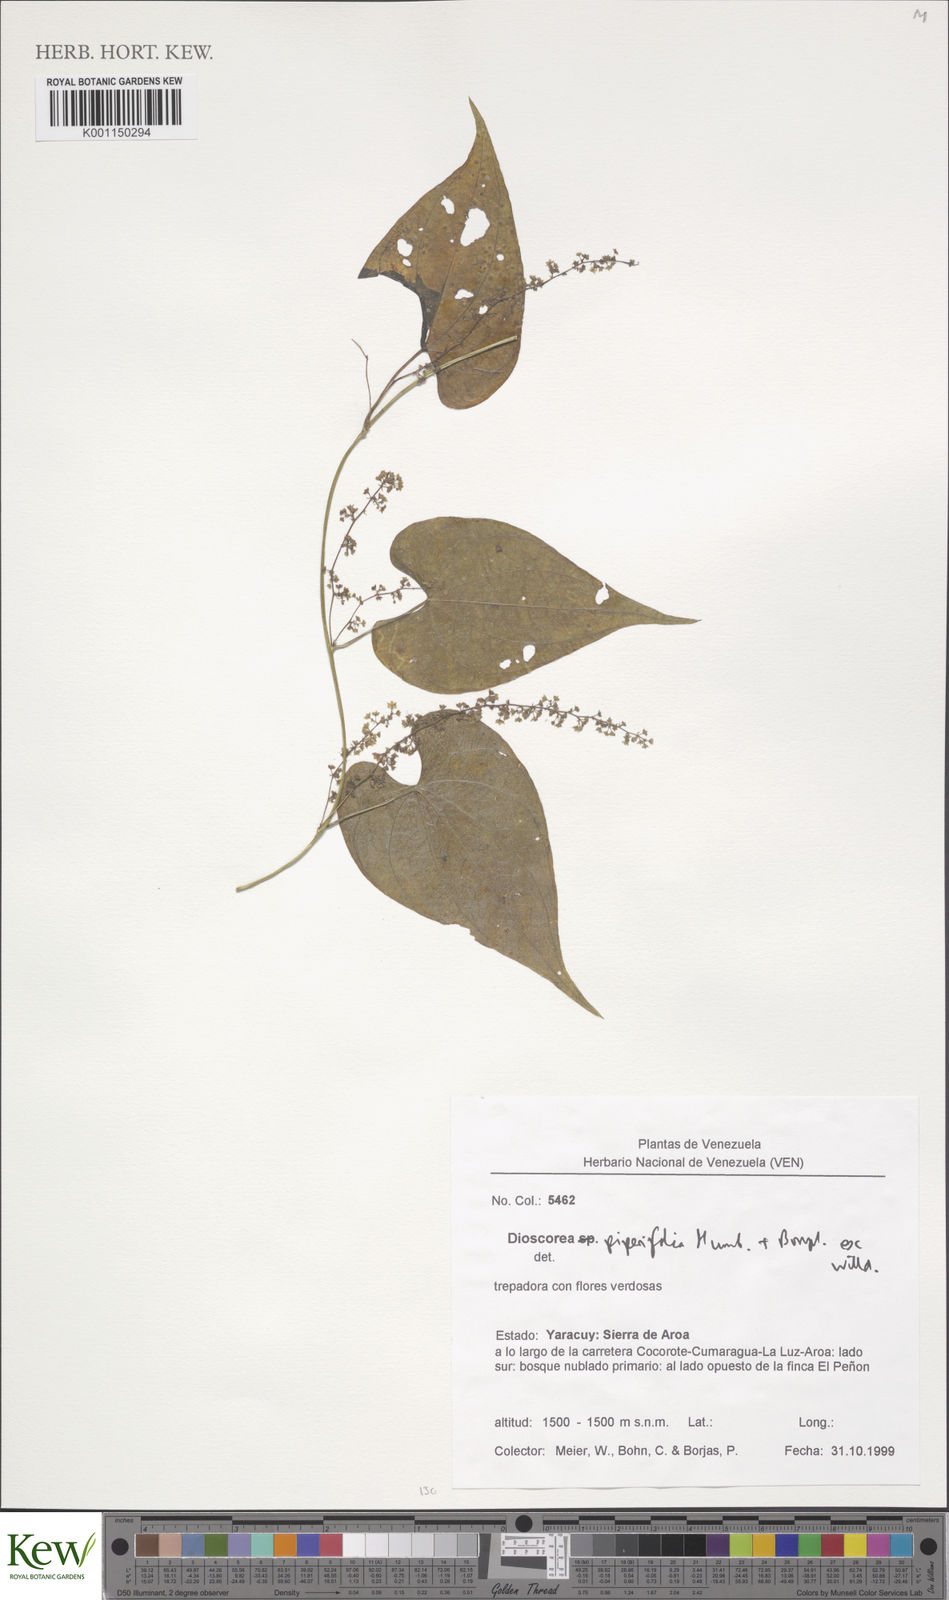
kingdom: Plantae
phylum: Tracheophyta
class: Liliopsida
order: Dioscoreales
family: Dioscoreaceae
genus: Dioscorea
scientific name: Dioscorea piperifolia
